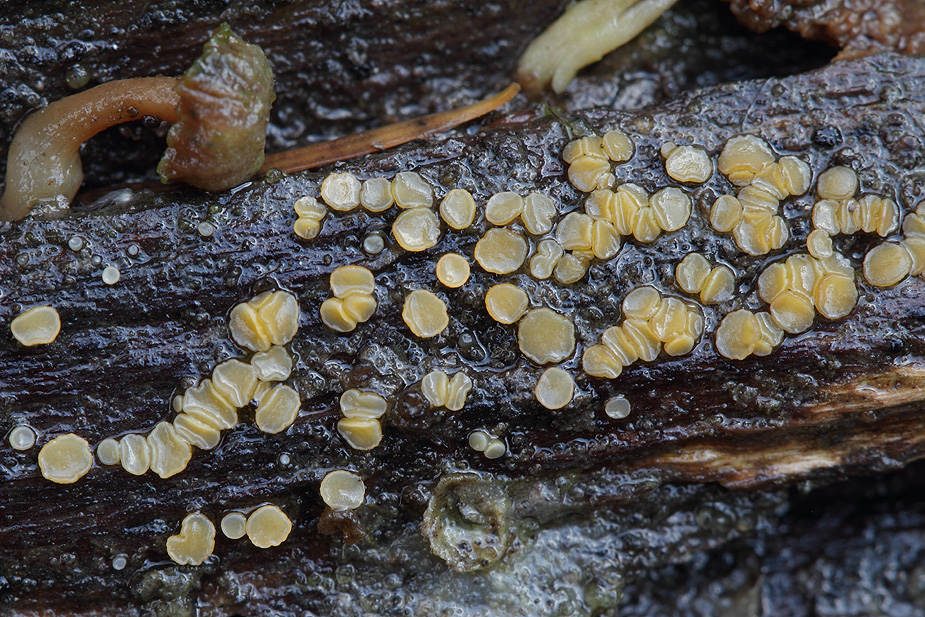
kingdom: Fungi
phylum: Ascomycota
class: Leotiomycetes
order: Helotiales
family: Helotiaceae
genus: Bisporella
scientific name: Bisporella subpallida
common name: lys snitskive
